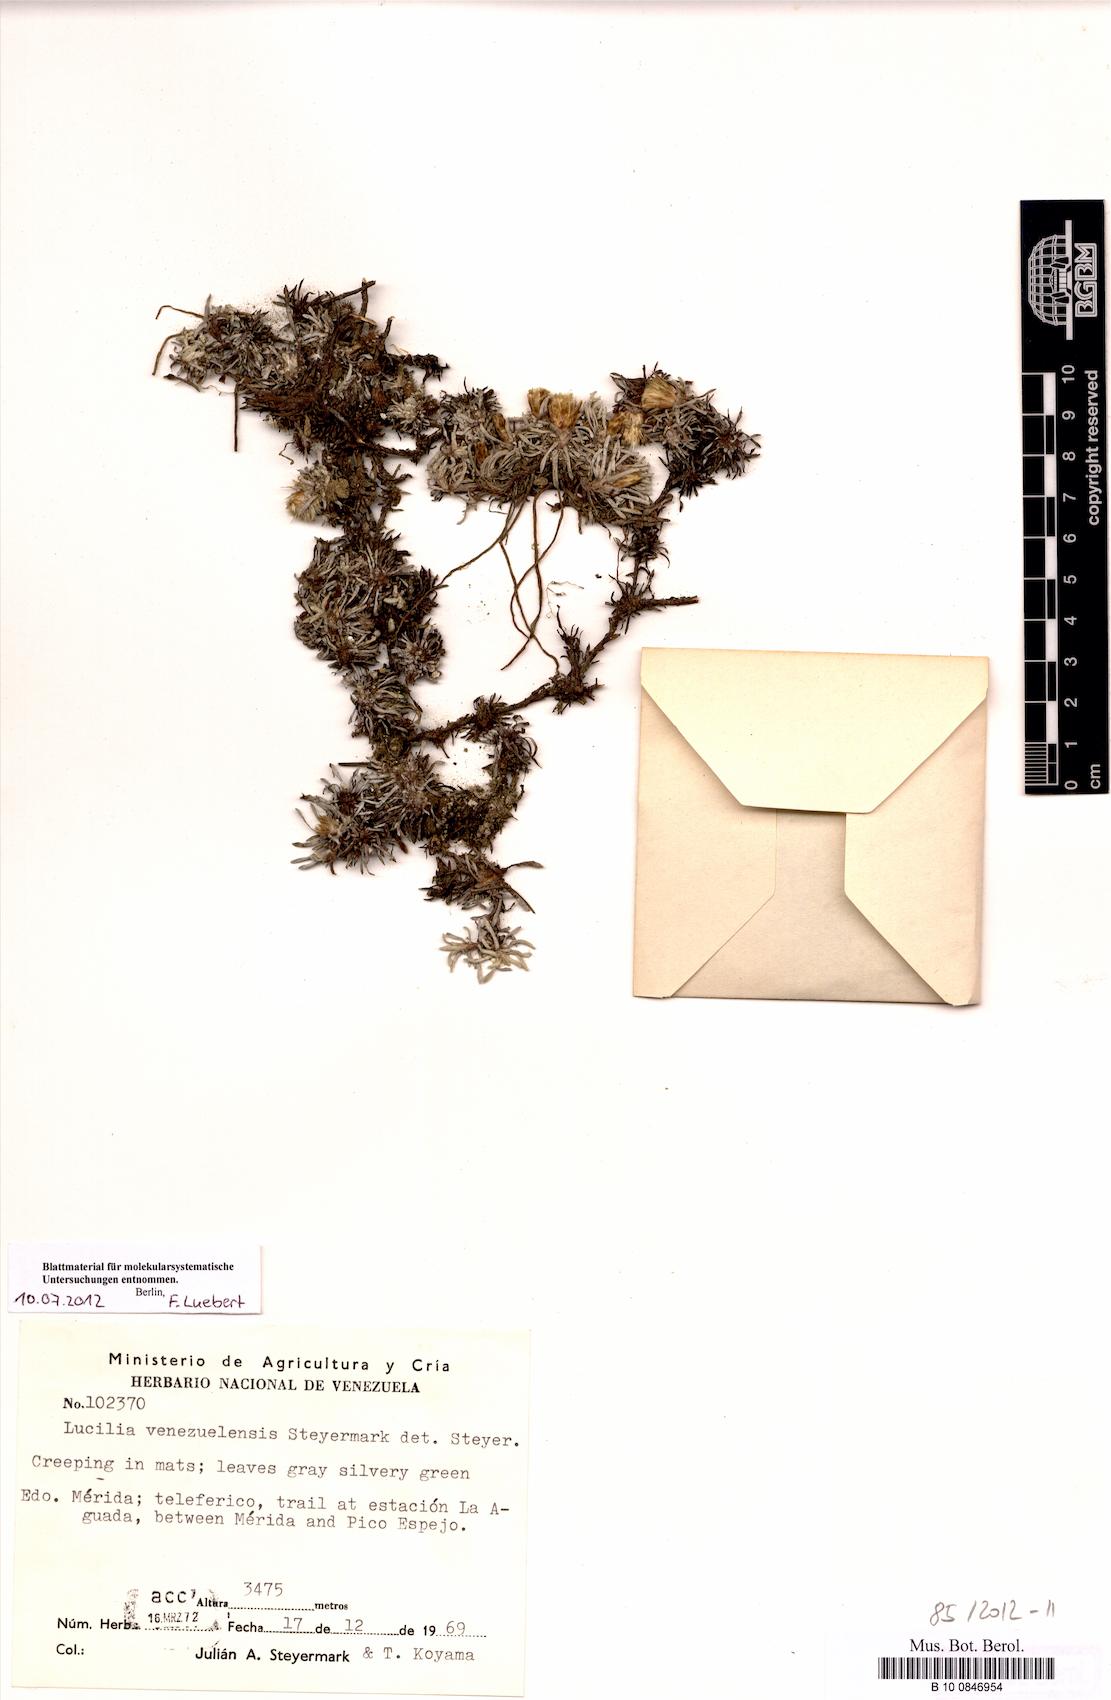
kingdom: Plantae
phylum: Tracheophyta
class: Magnoliopsida
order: Asterales
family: Asteraceae
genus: Mniodes
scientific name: Mniodes kunthiana
